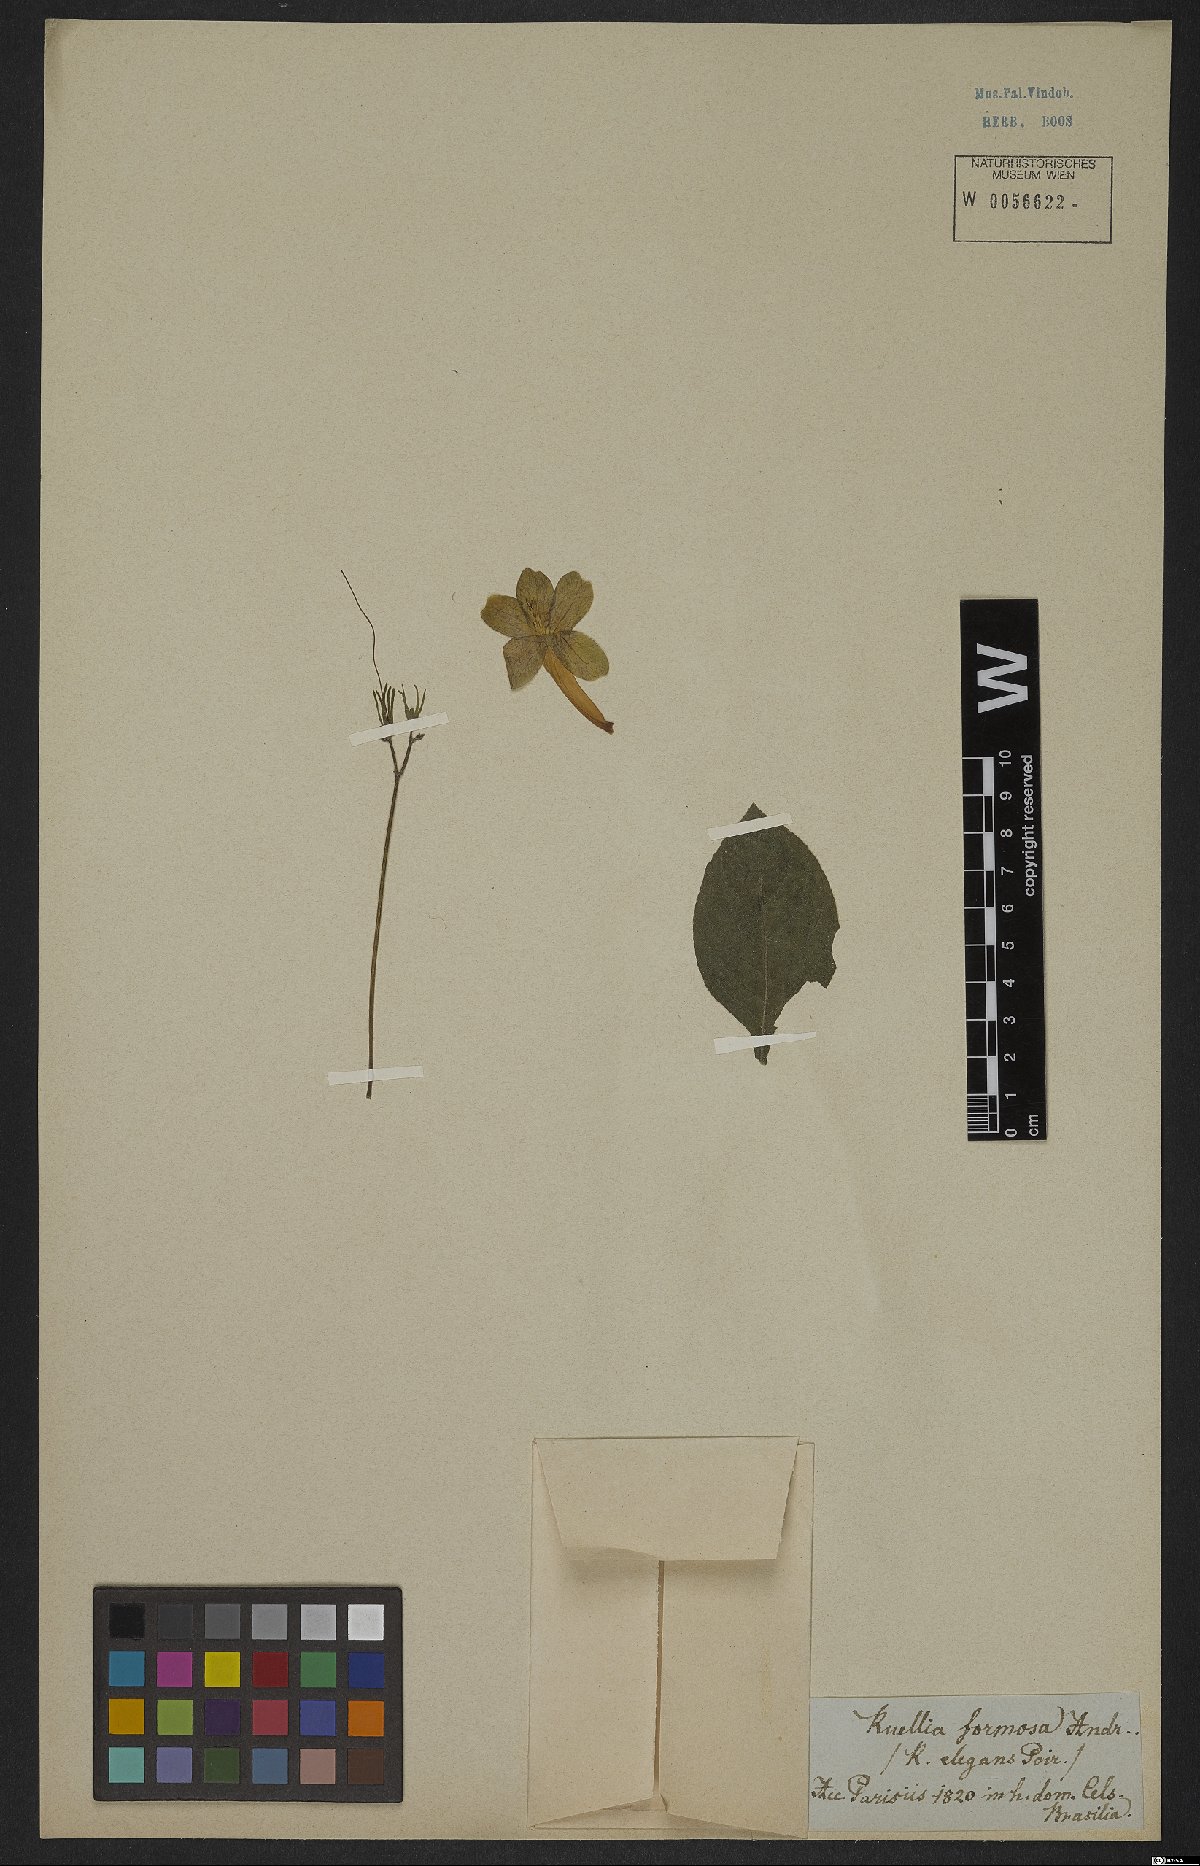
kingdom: Plantae
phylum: Tracheophyta
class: Magnoliopsida
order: Lamiales
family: Acanthaceae
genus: Aphelandra
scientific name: Aphelandra formosa
